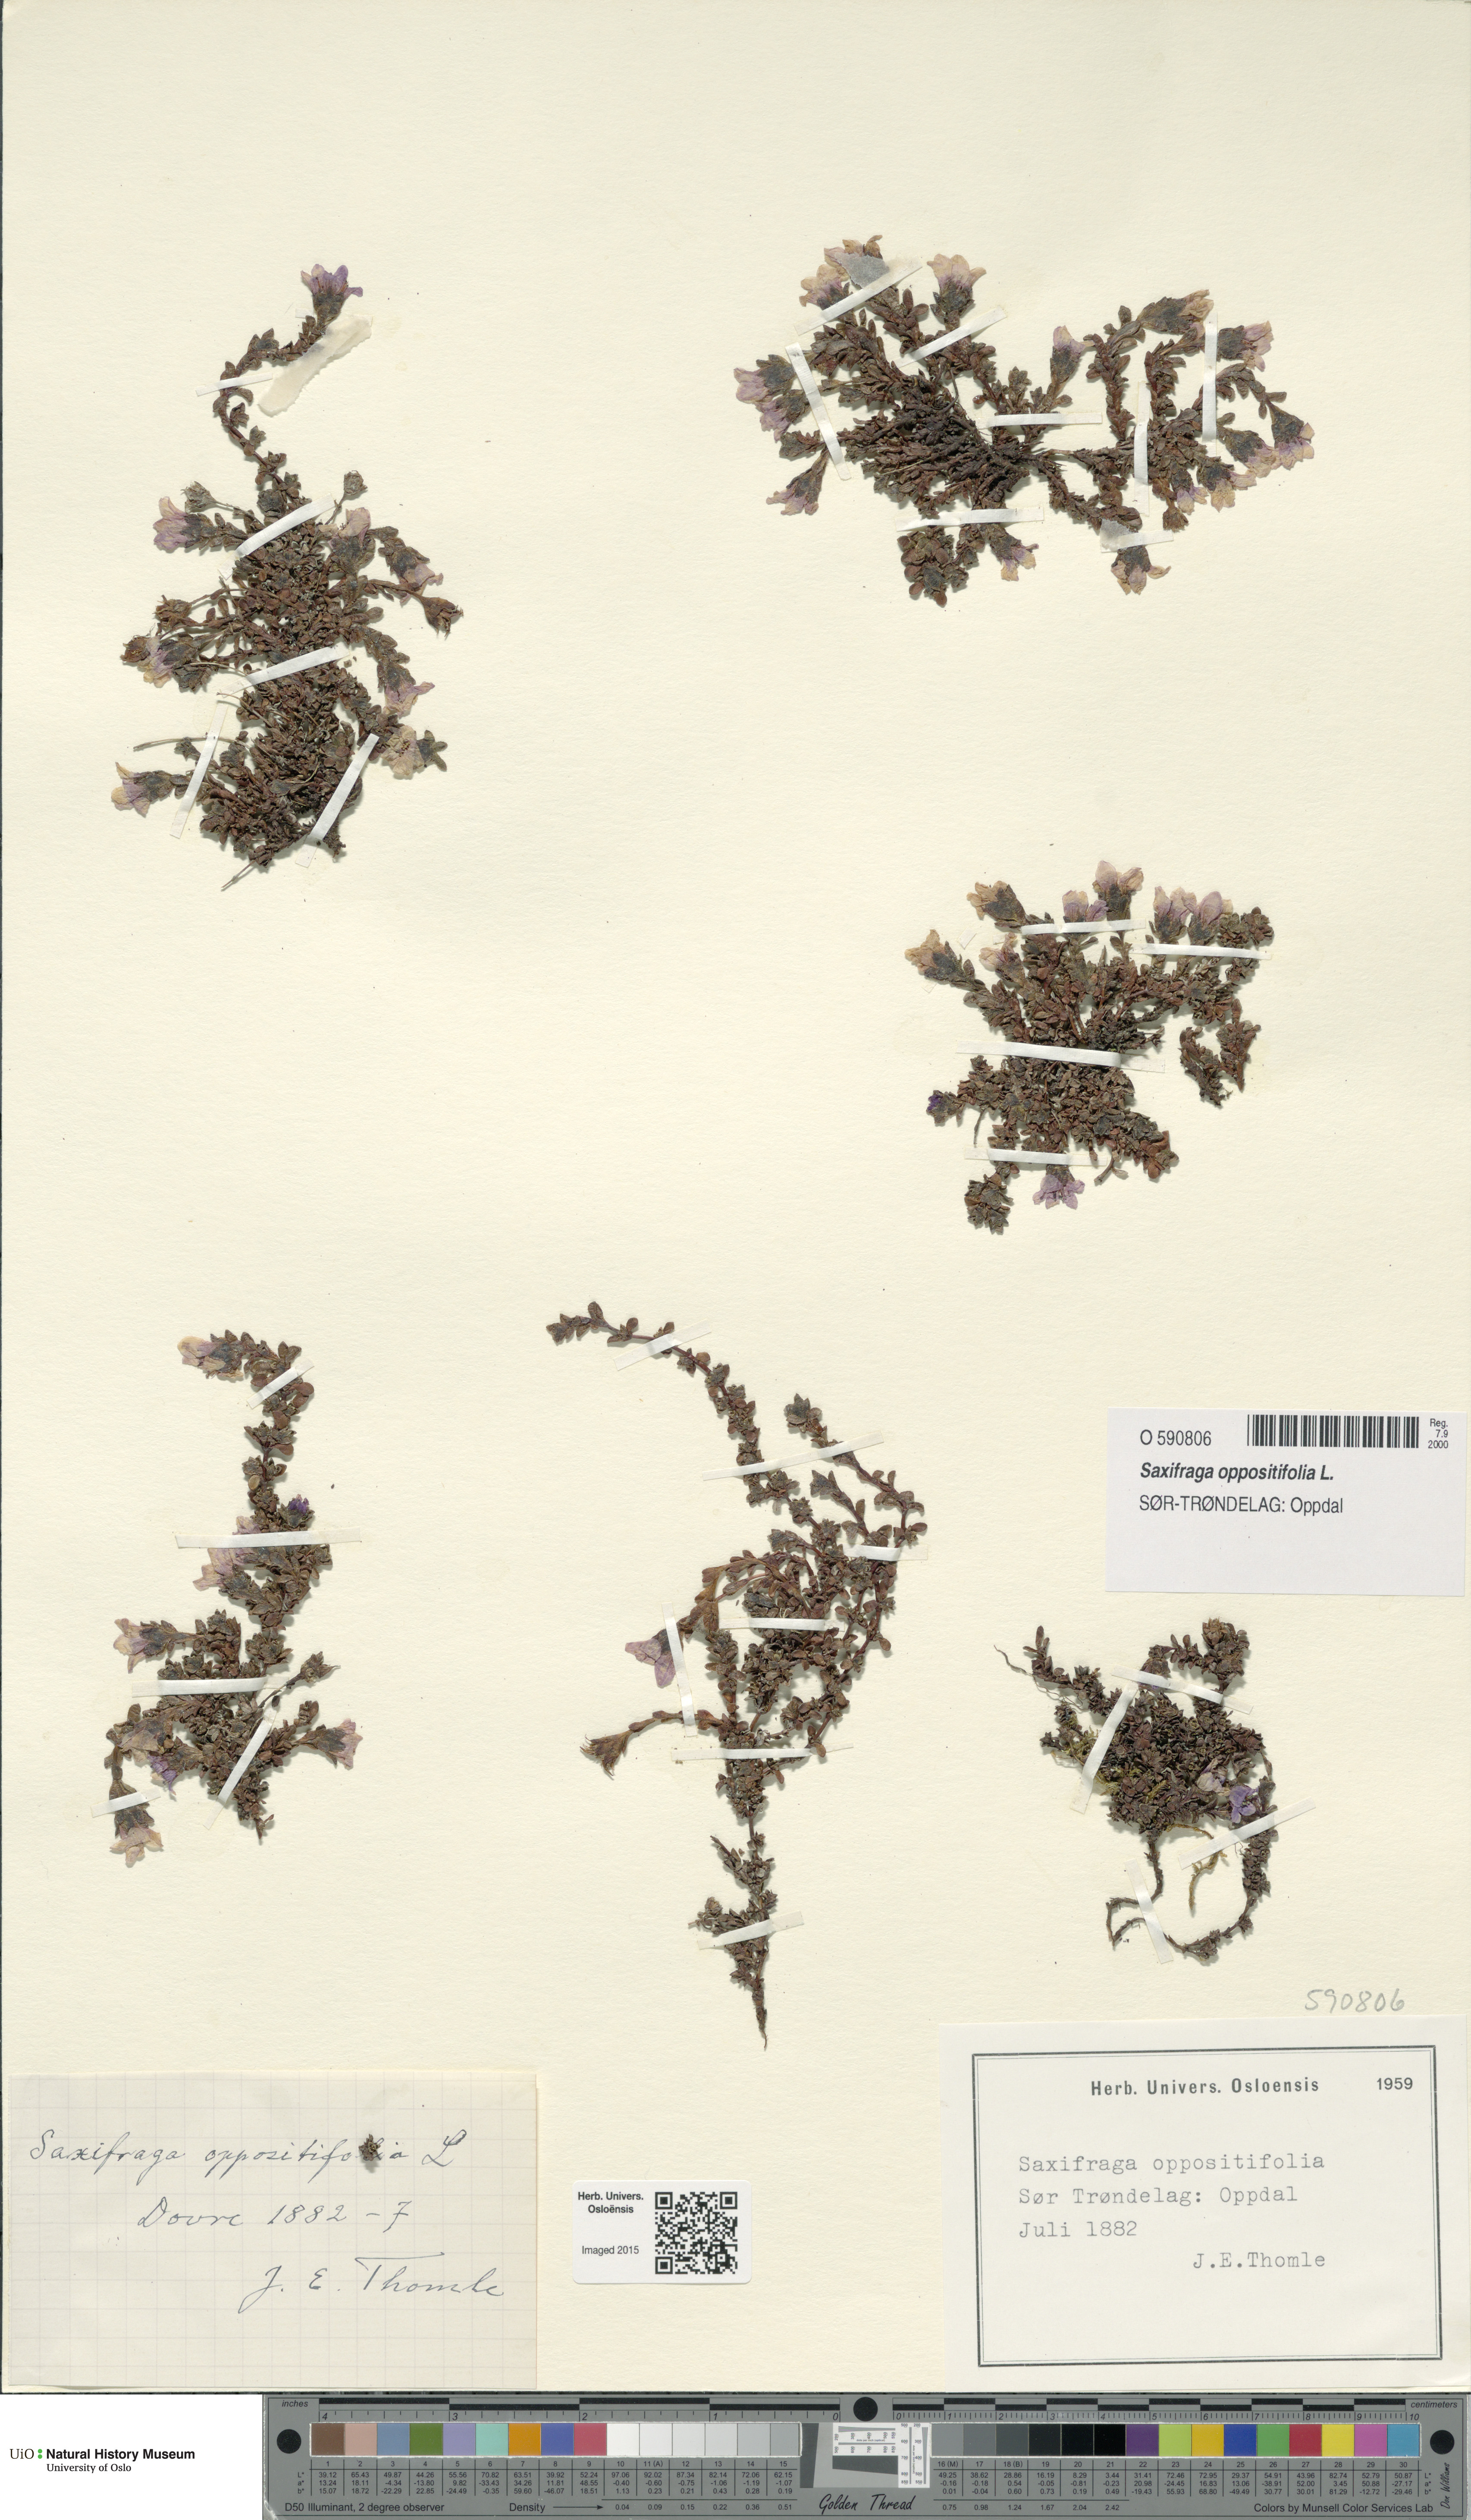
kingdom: Plantae
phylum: Tracheophyta
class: Magnoliopsida
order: Saxifragales
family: Saxifragaceae
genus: Saxifraga
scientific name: Saxifraga oppositifolia
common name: Purple saxifrage
